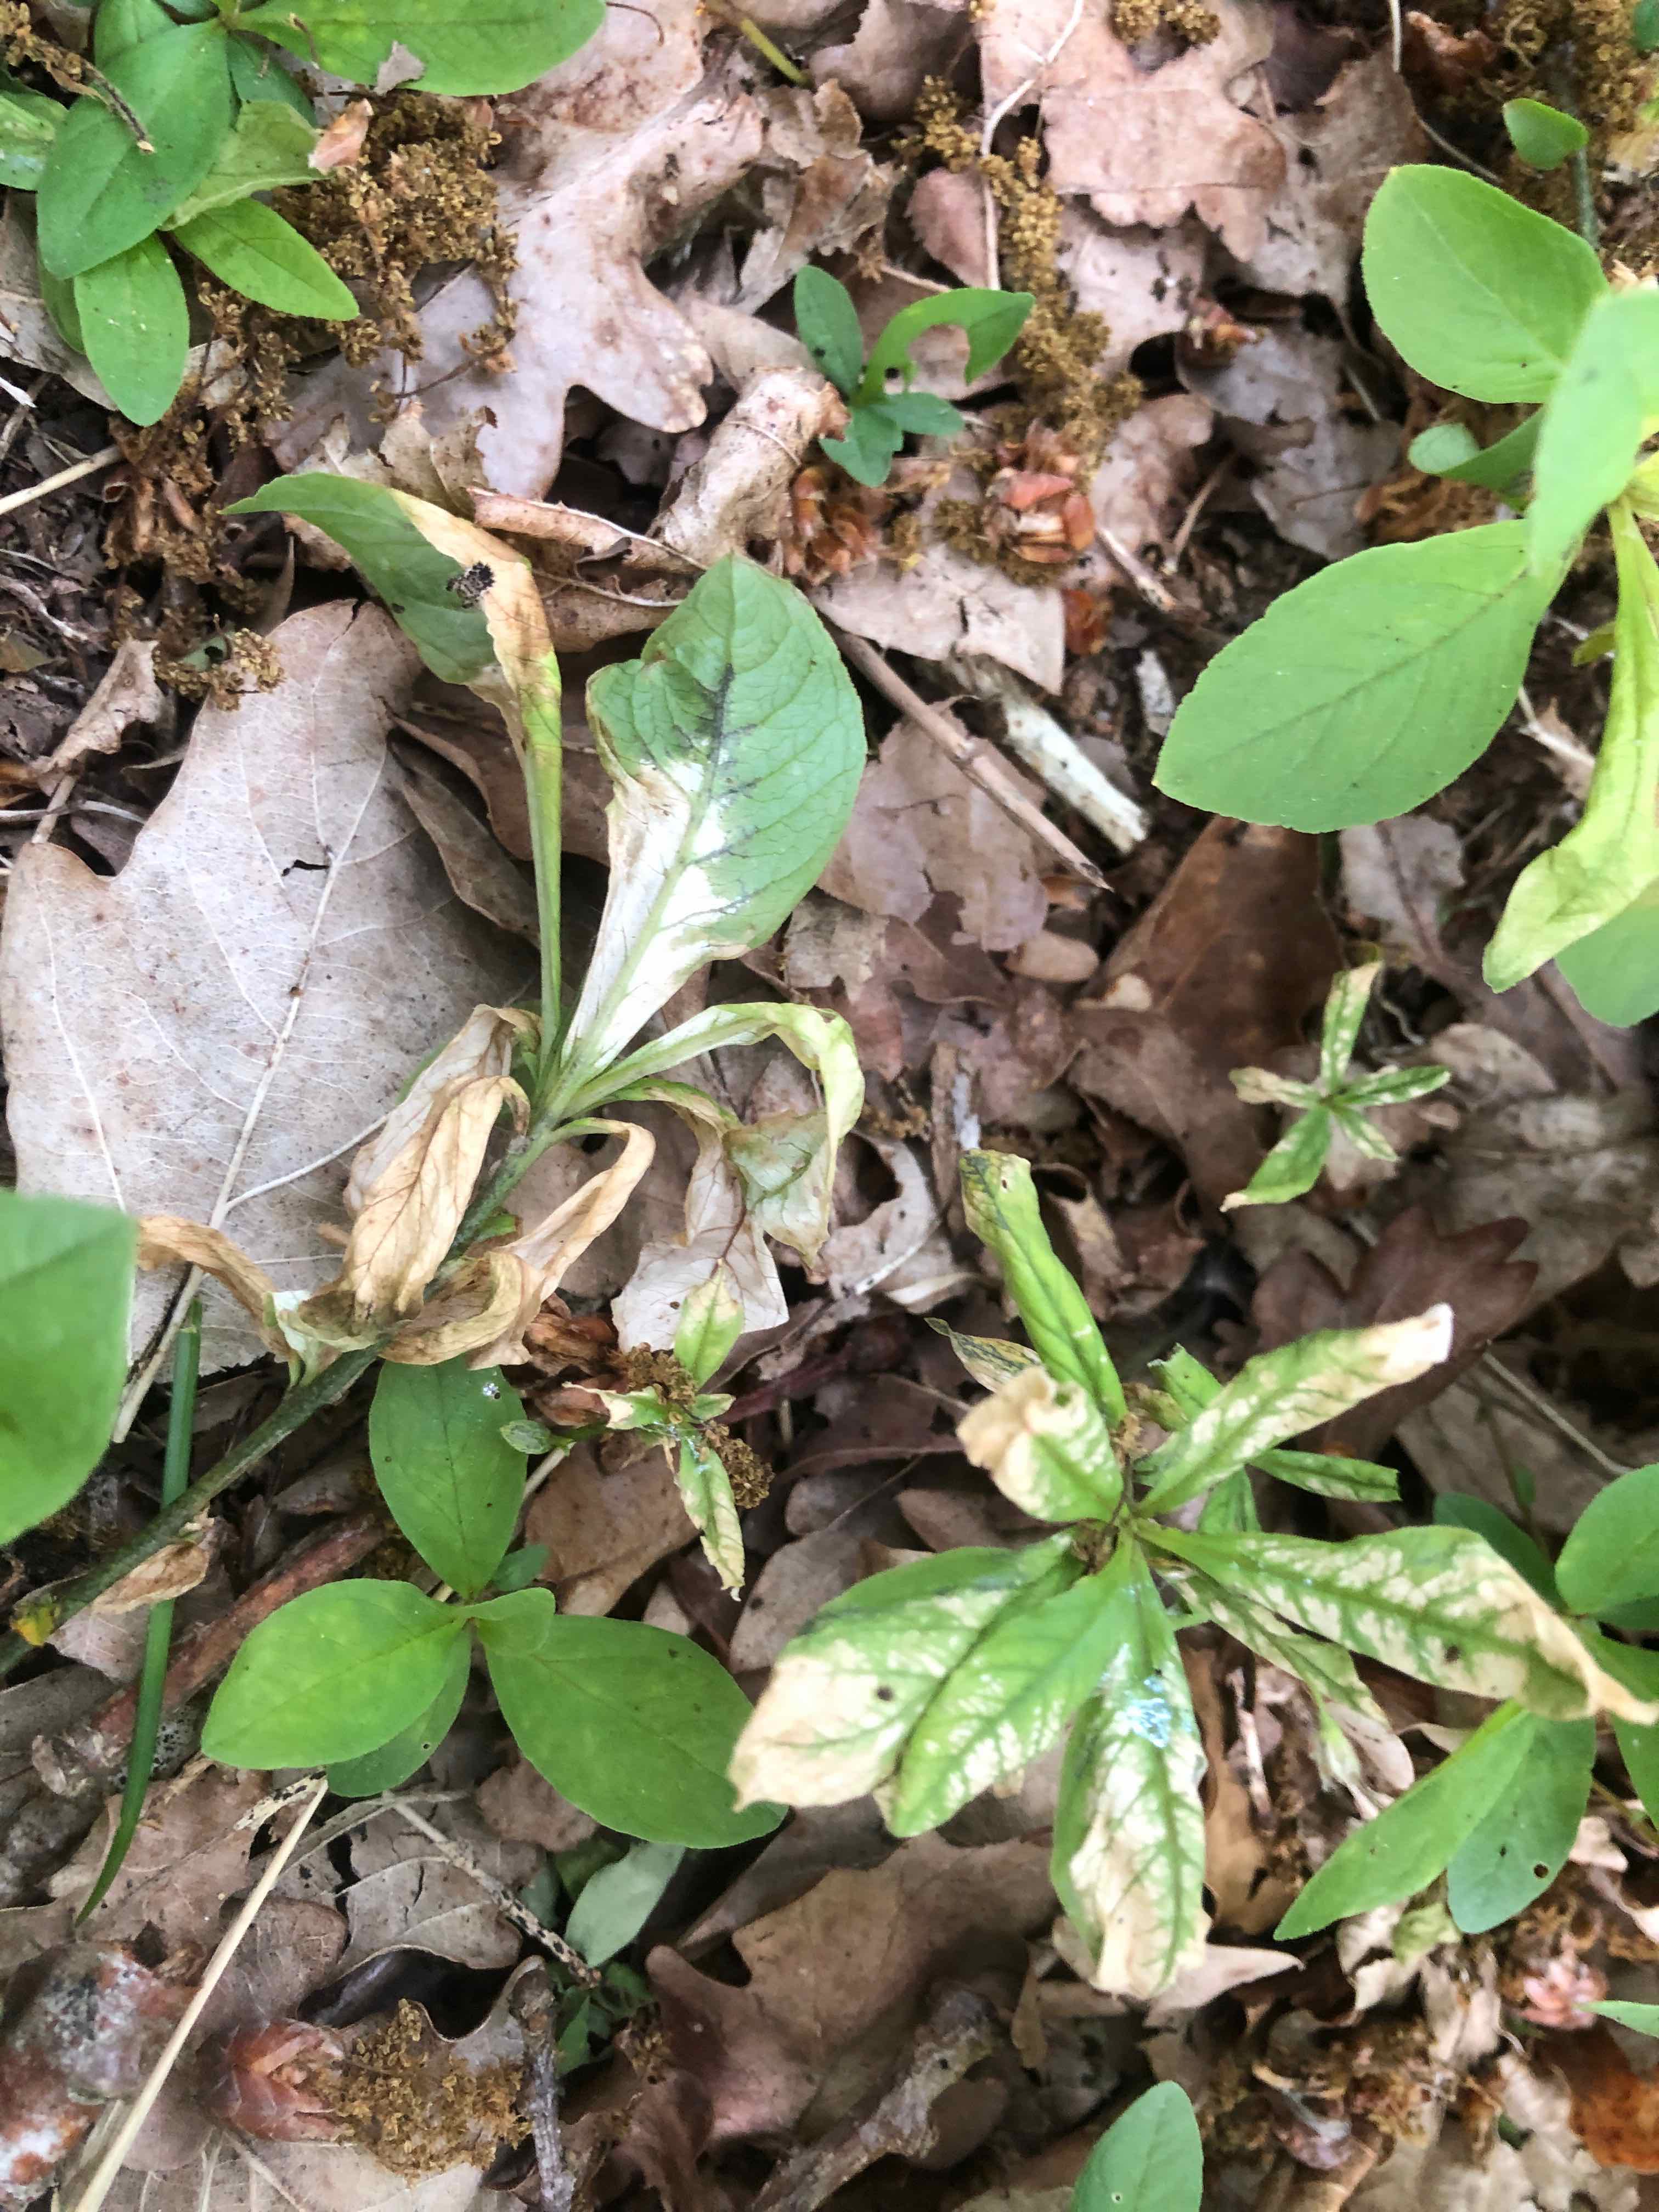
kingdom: Fungi
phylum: Basidiomycota
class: Ustilaginomycetes
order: Urocystidales
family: Urocystidaceae
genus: Urocystis
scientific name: Urocystis trientalis
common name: Chickweed wintergreen smut
